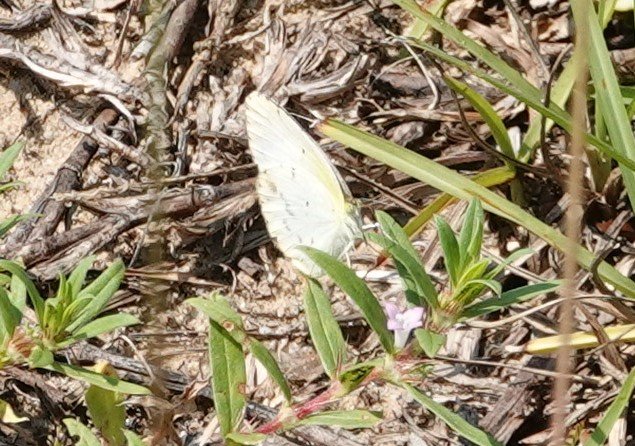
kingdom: Animalia
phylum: Arthropoda
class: Insecta
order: Lepidoptera
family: Pieridae
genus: Pyrisitia
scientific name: Pyrisitia lisa
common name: Little Yellow
